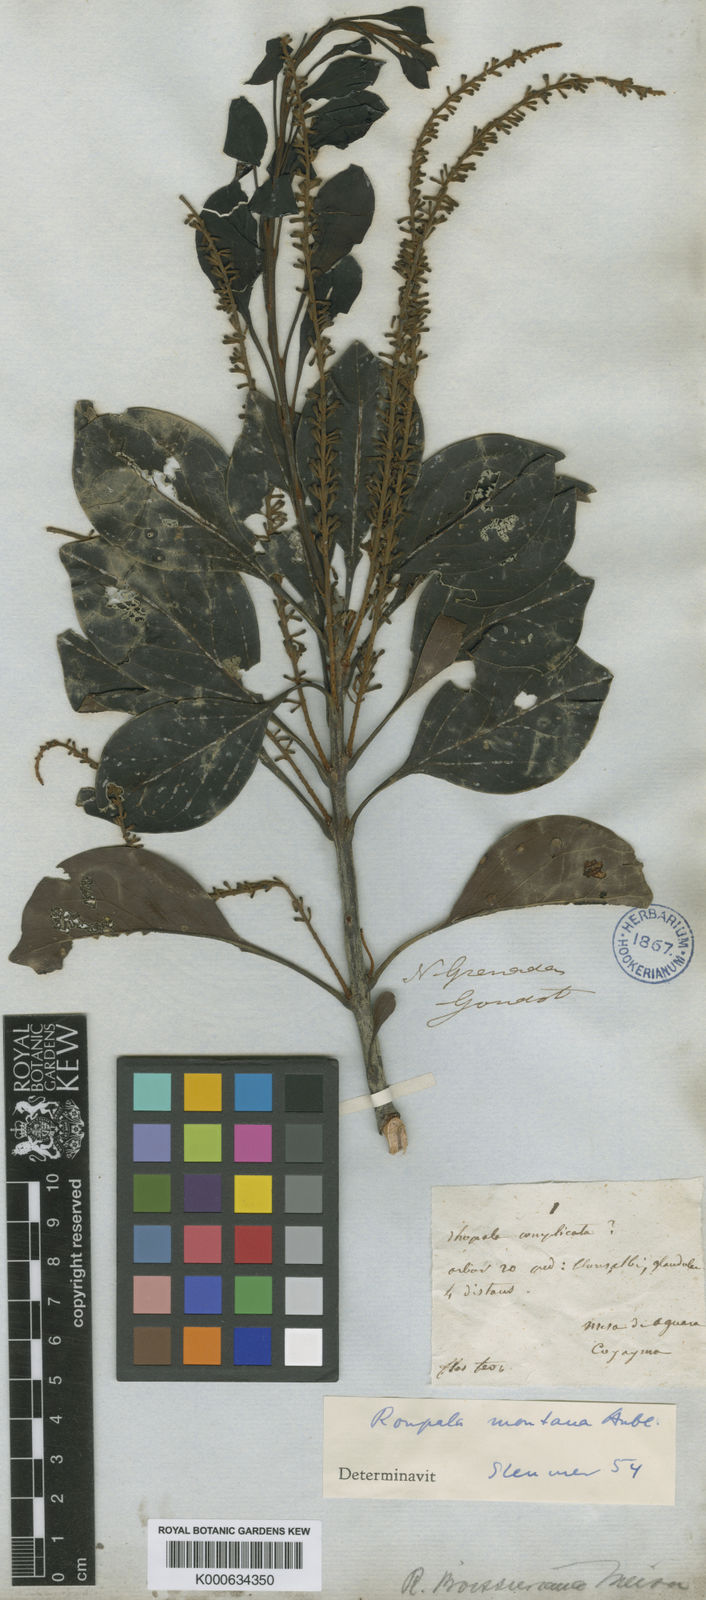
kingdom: Plantae
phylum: Tracheophyta
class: Magnoliopsida
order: Proteales
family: Proteaceae
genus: Roupala
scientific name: Roupala montana
